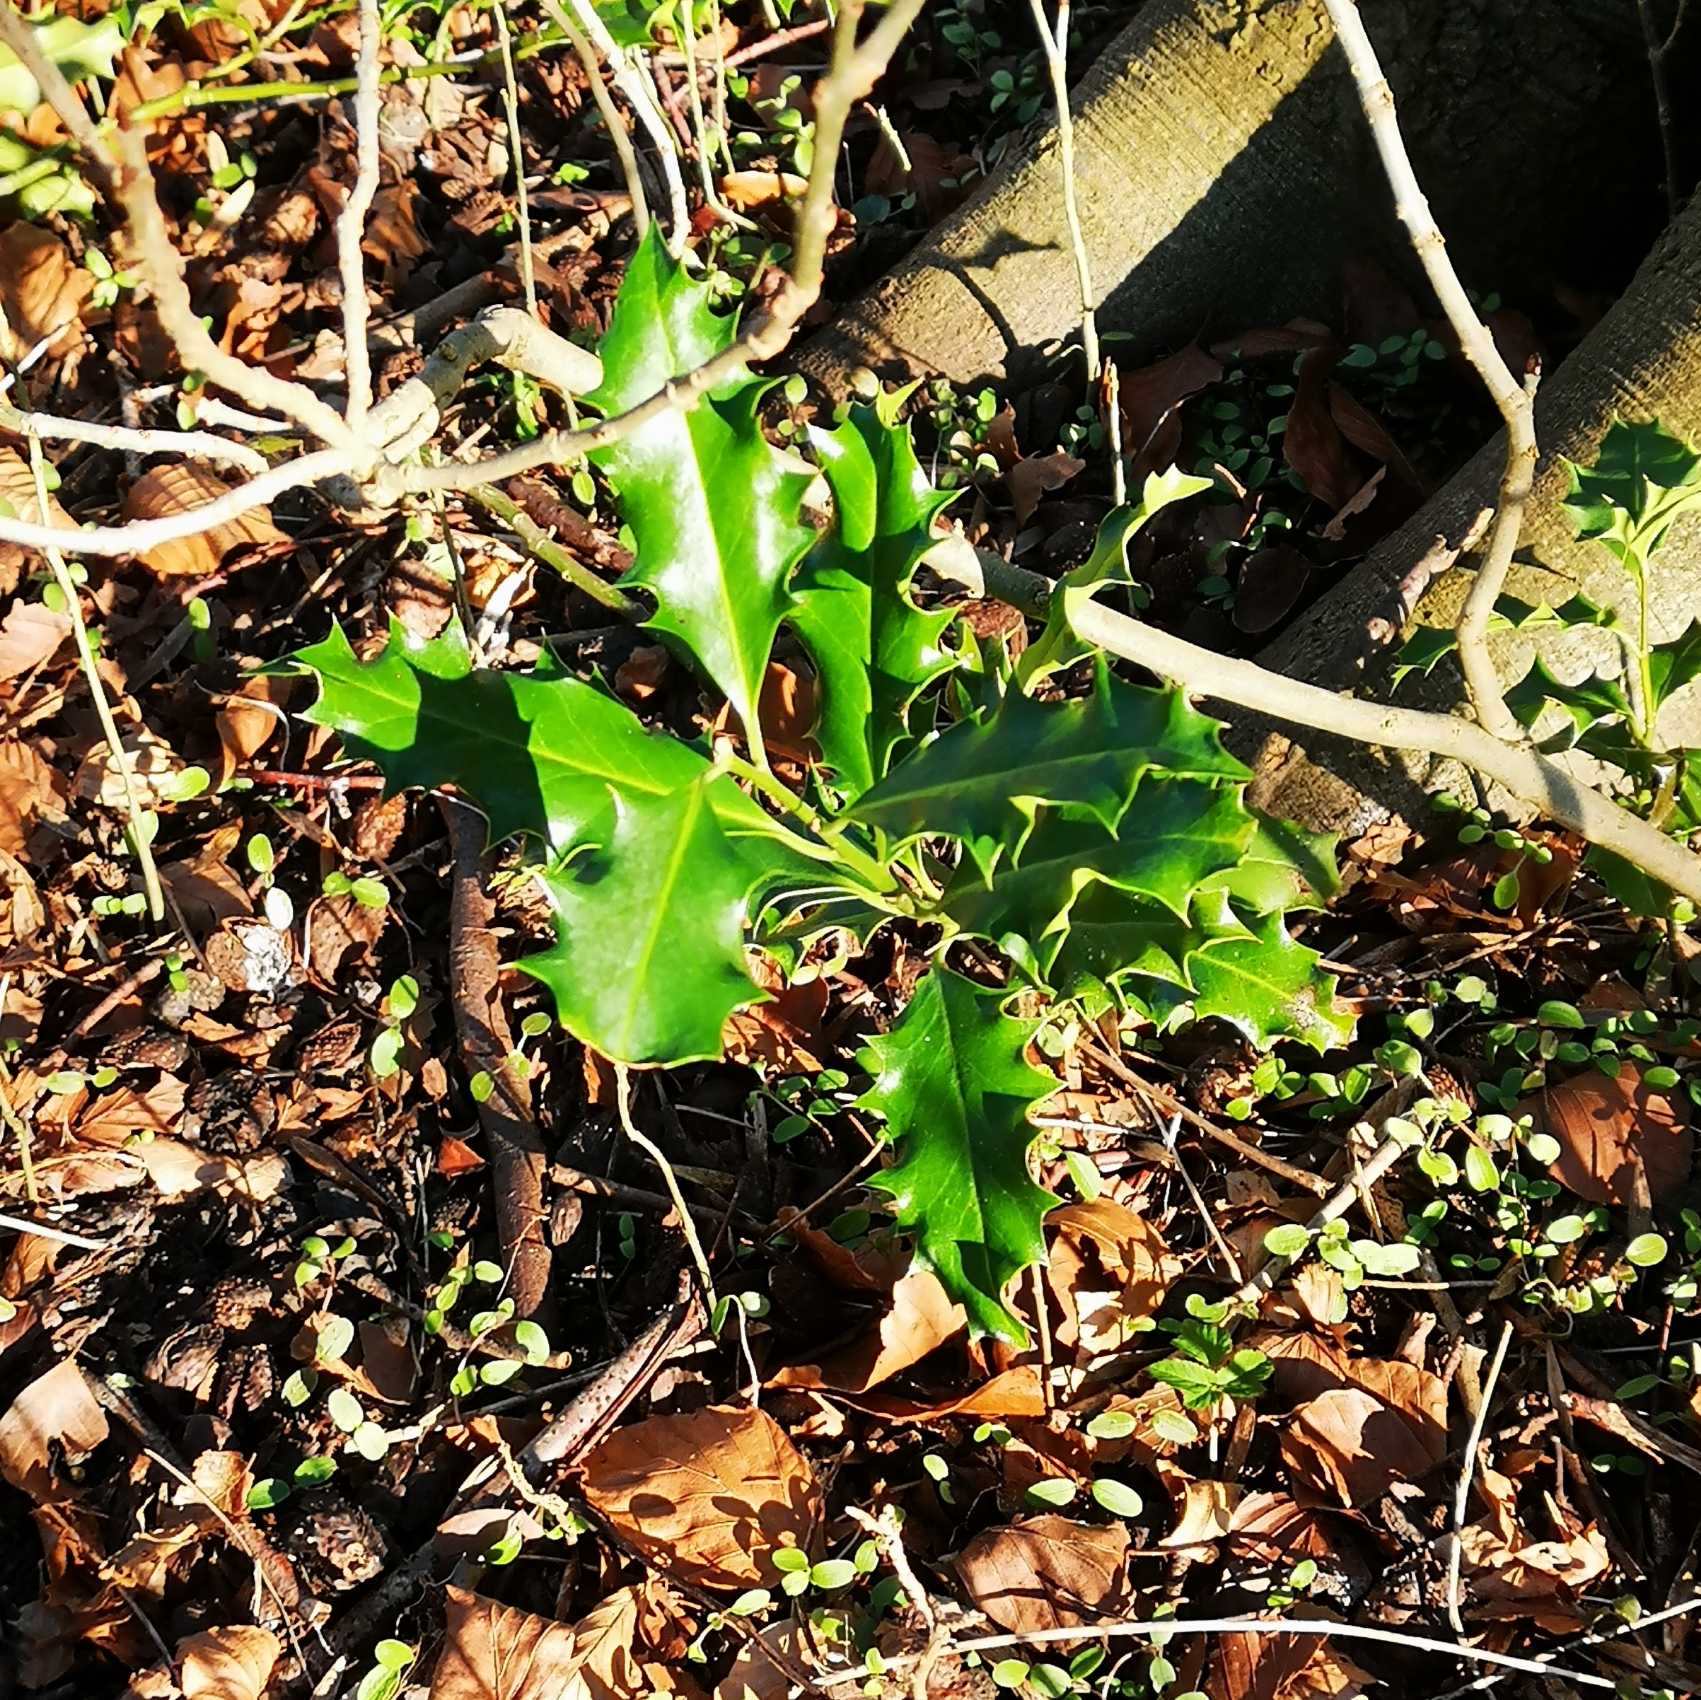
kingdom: Plantae
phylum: Tracheophyta
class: Magnoliopsida
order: Aquifoliales
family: Aquifoliaceae
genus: Ilex
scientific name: Ilex aquifolium
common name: Kristtorn
